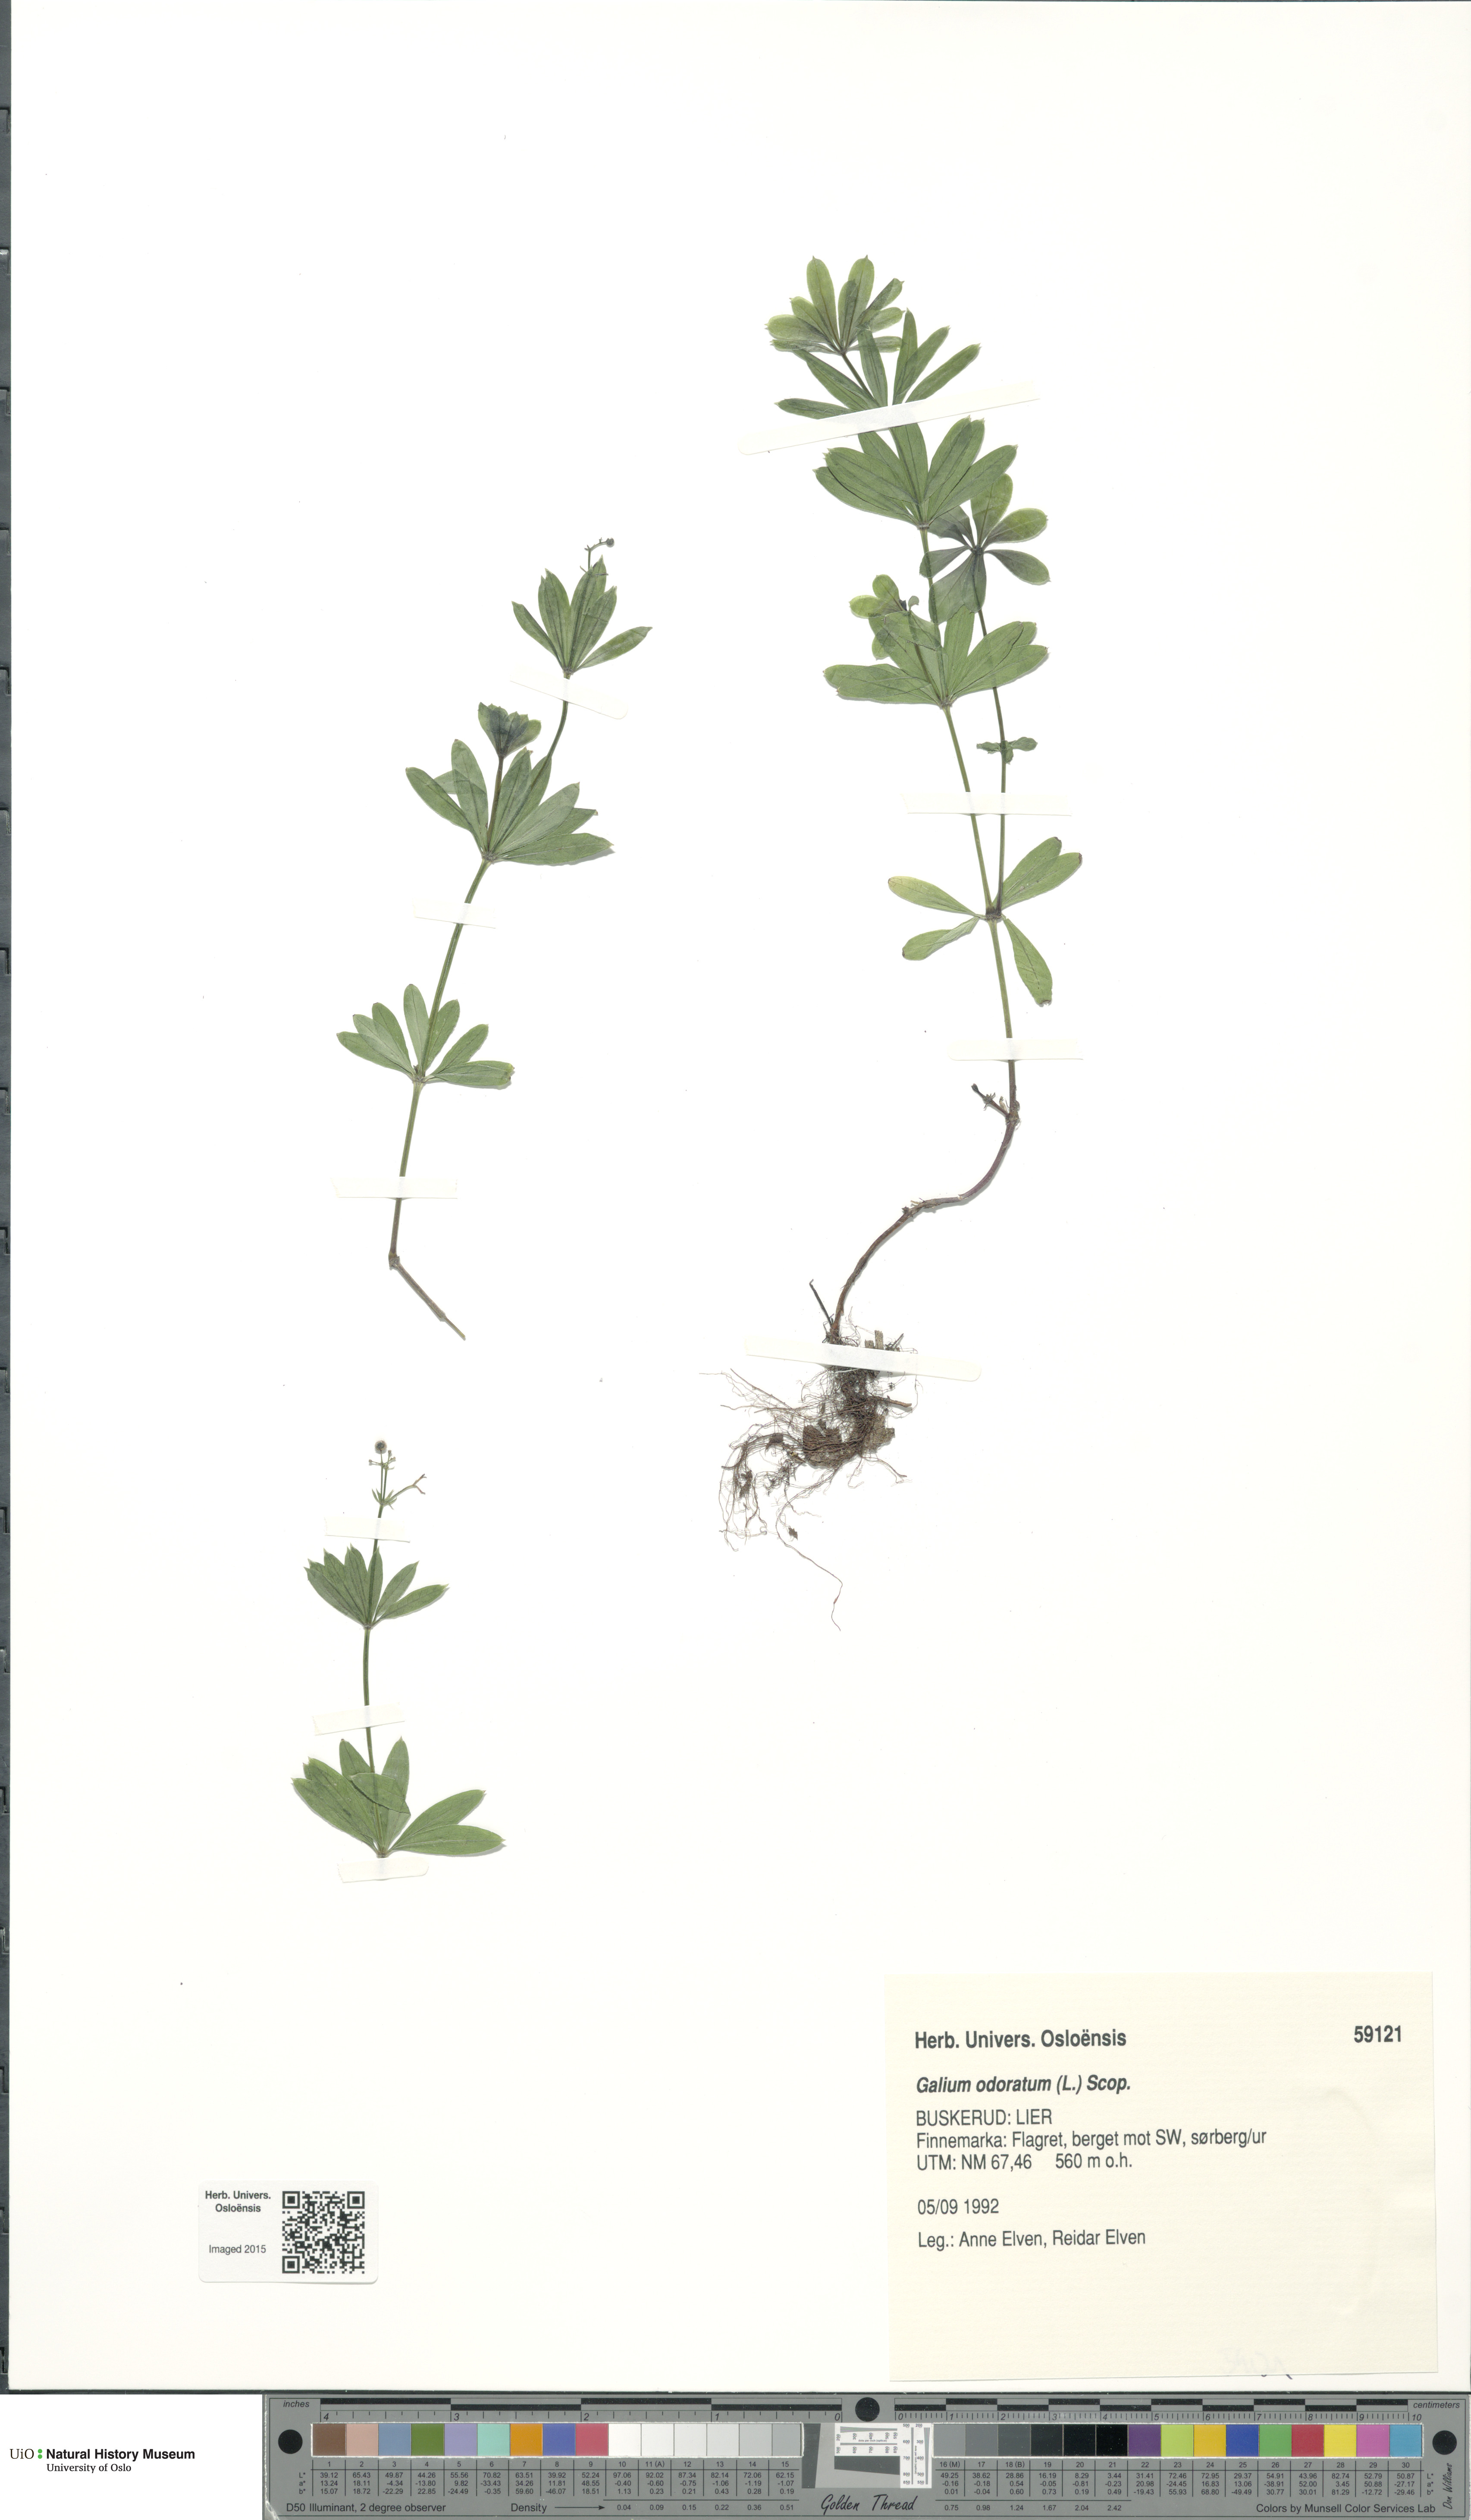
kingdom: Plantae
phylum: Tracheophyta
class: Magnoliopsida
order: Gentianales
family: Rubiaceae
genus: Galium
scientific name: Galium odoratum
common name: Sweet woodruff
